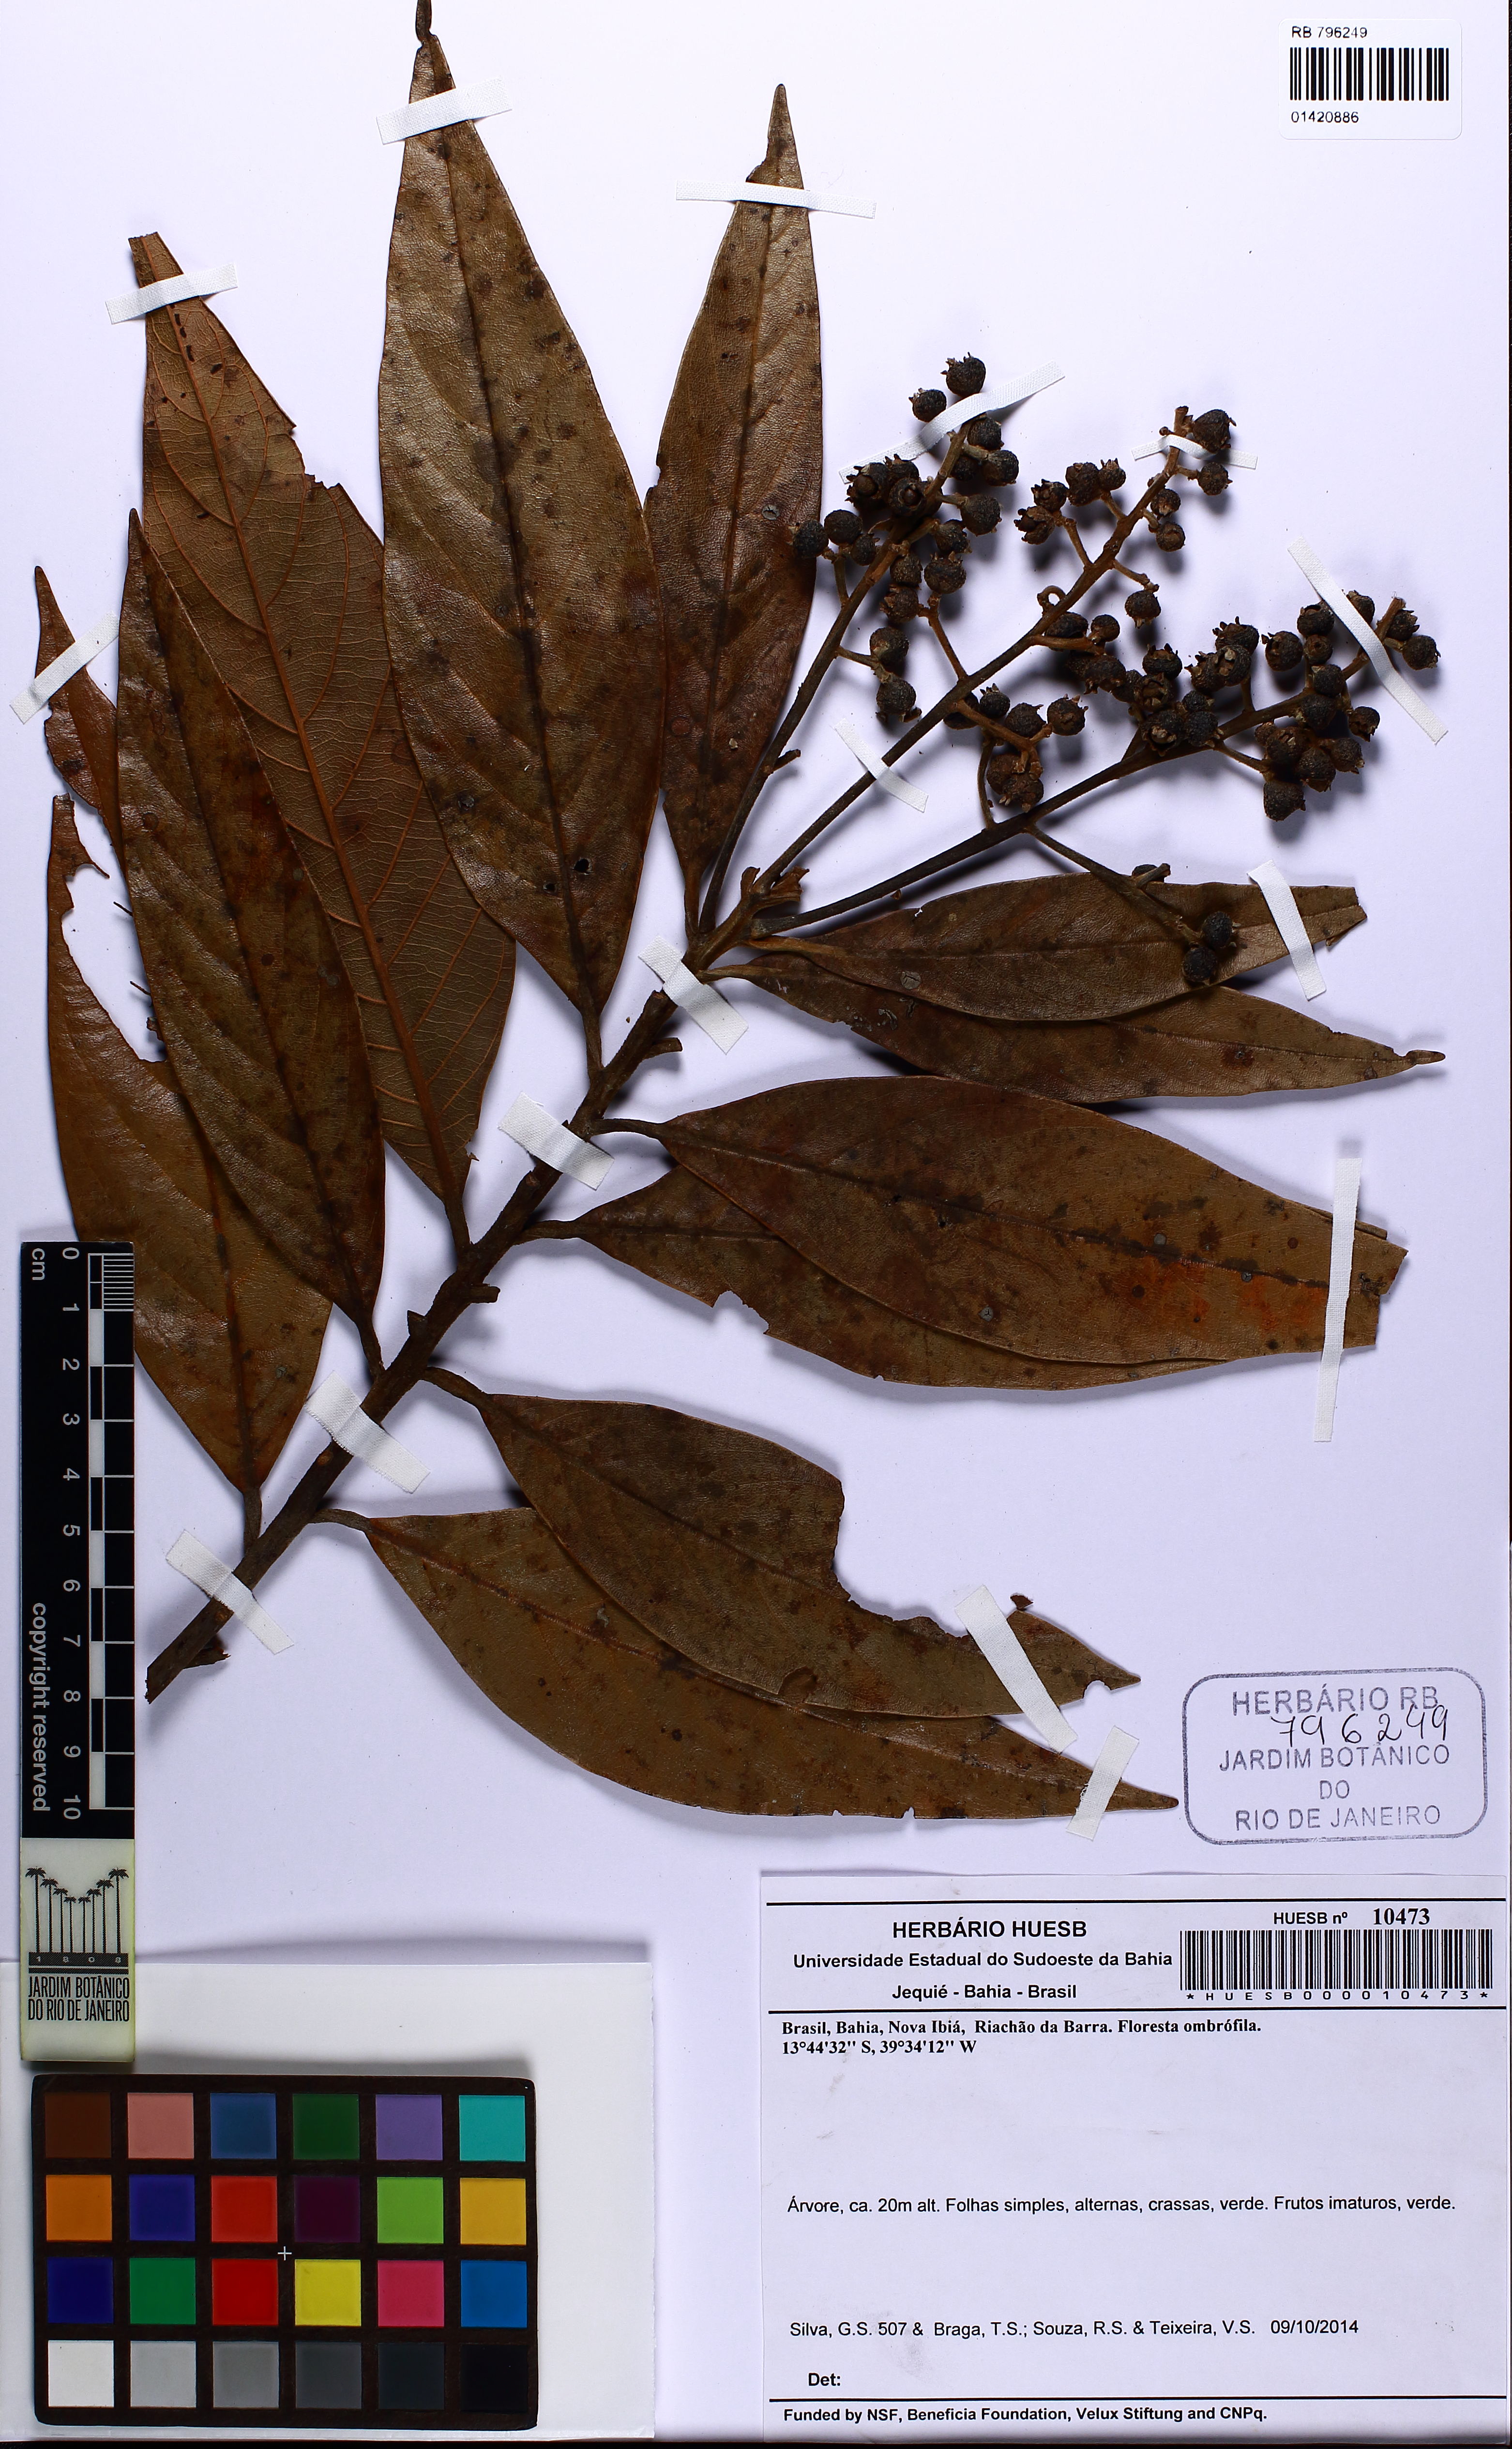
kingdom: Plantae
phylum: Tracheophyta
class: Magnoliopsida
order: Laurales
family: Lauraceae
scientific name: Lauraceae
